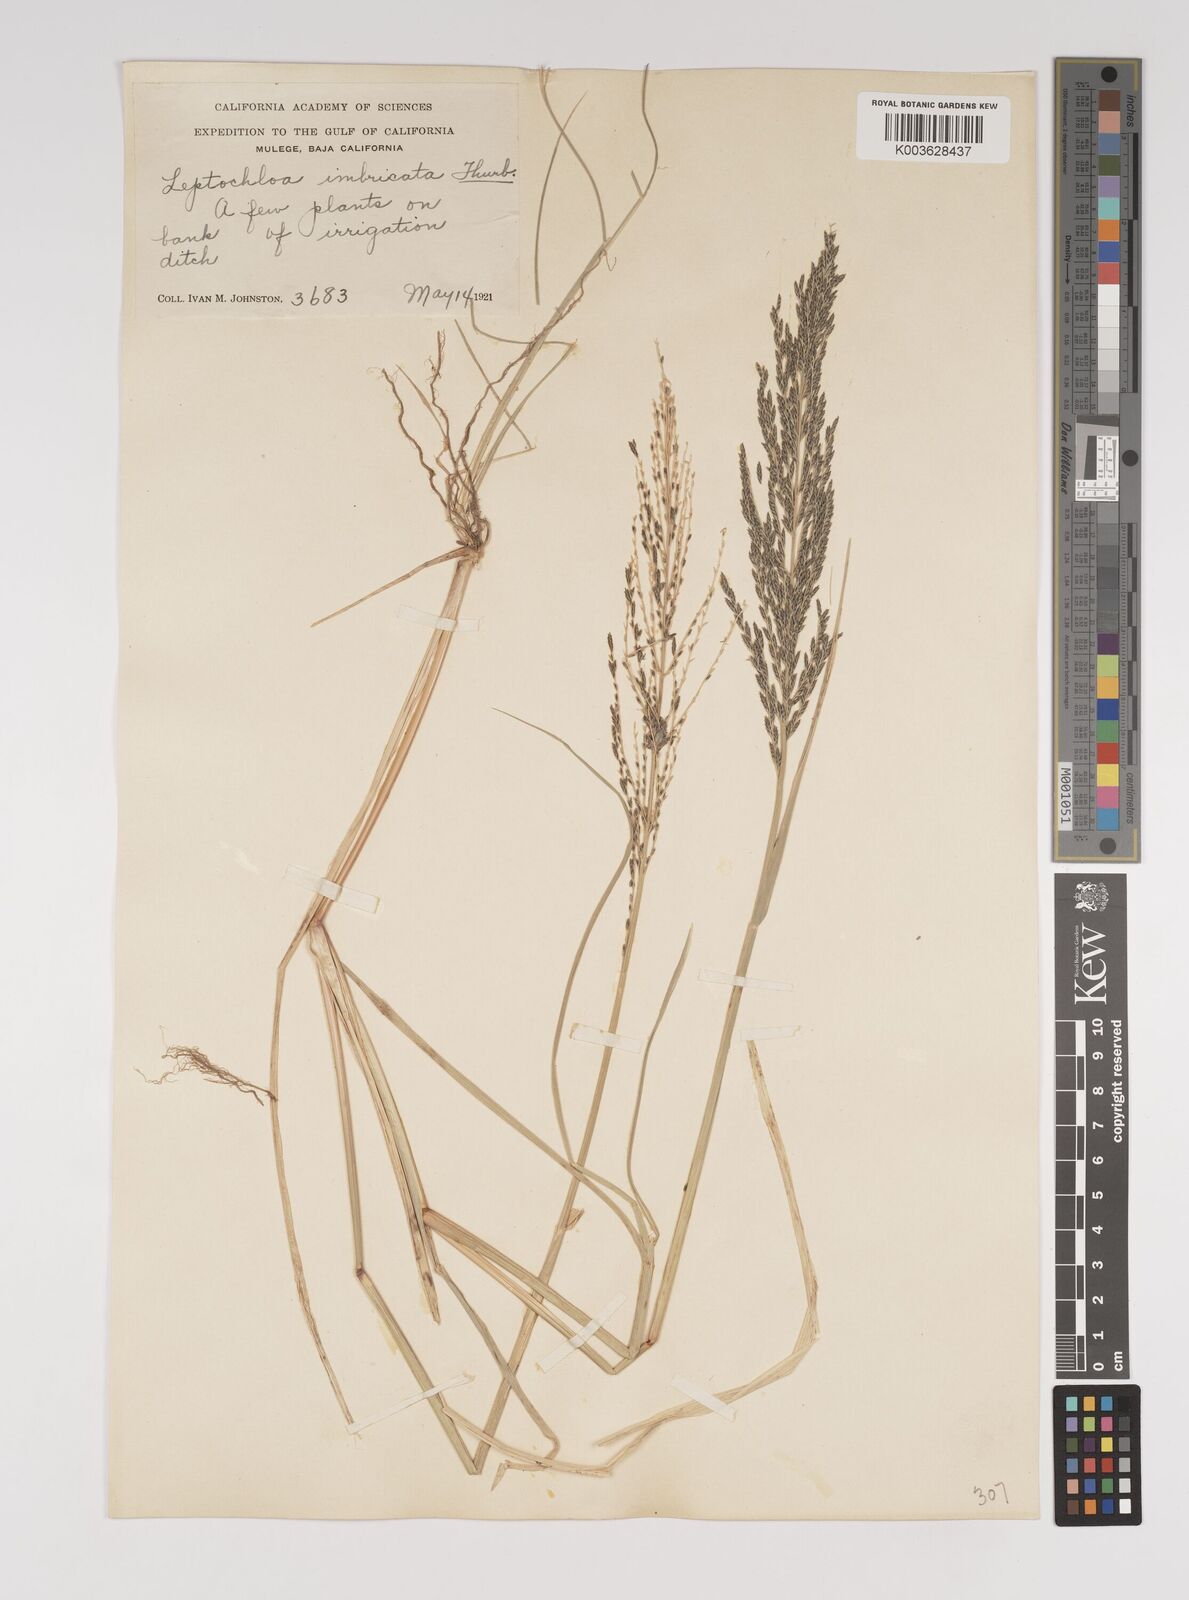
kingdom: Plantae
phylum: Tracheophyta
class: Liliopsida
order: Poales
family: Poaceae
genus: Diplachne
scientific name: Diplachne fusca
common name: Brown beetle grass
